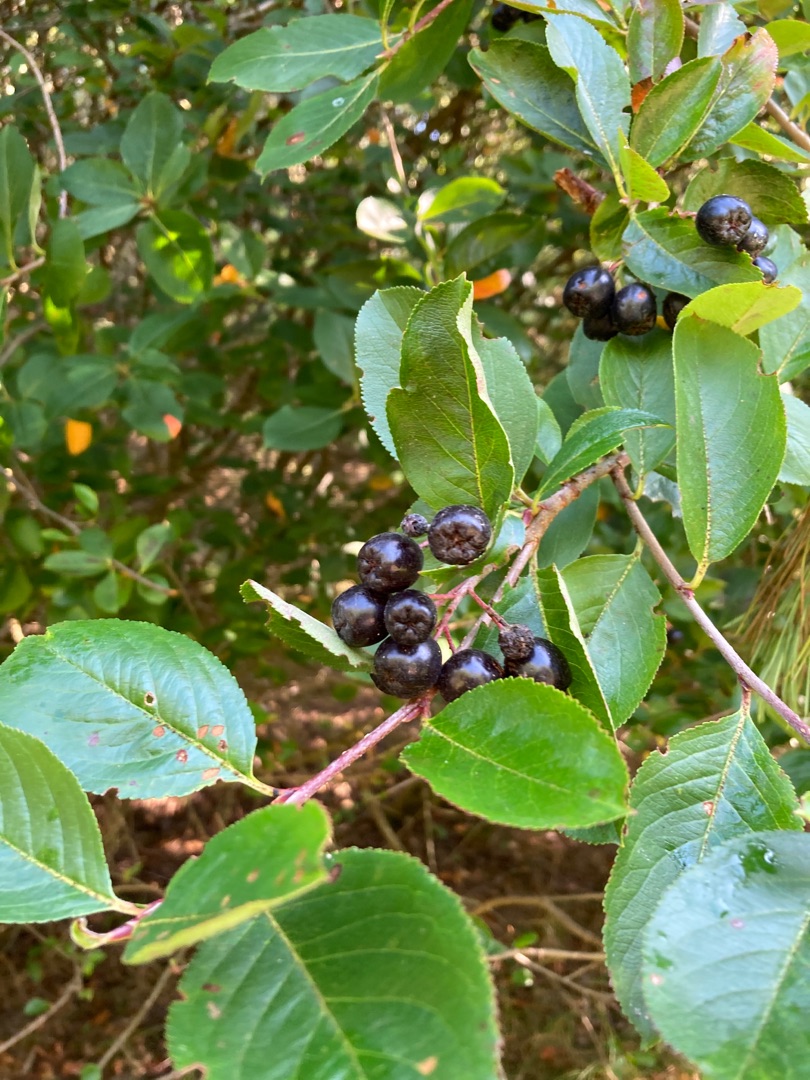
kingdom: Plantae
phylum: Tracheophyta
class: Magnoliopsida
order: Rosales
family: Rosaceae
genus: Aronia
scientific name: Aronia melanocarpa
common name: Sortfrugtet surbær
